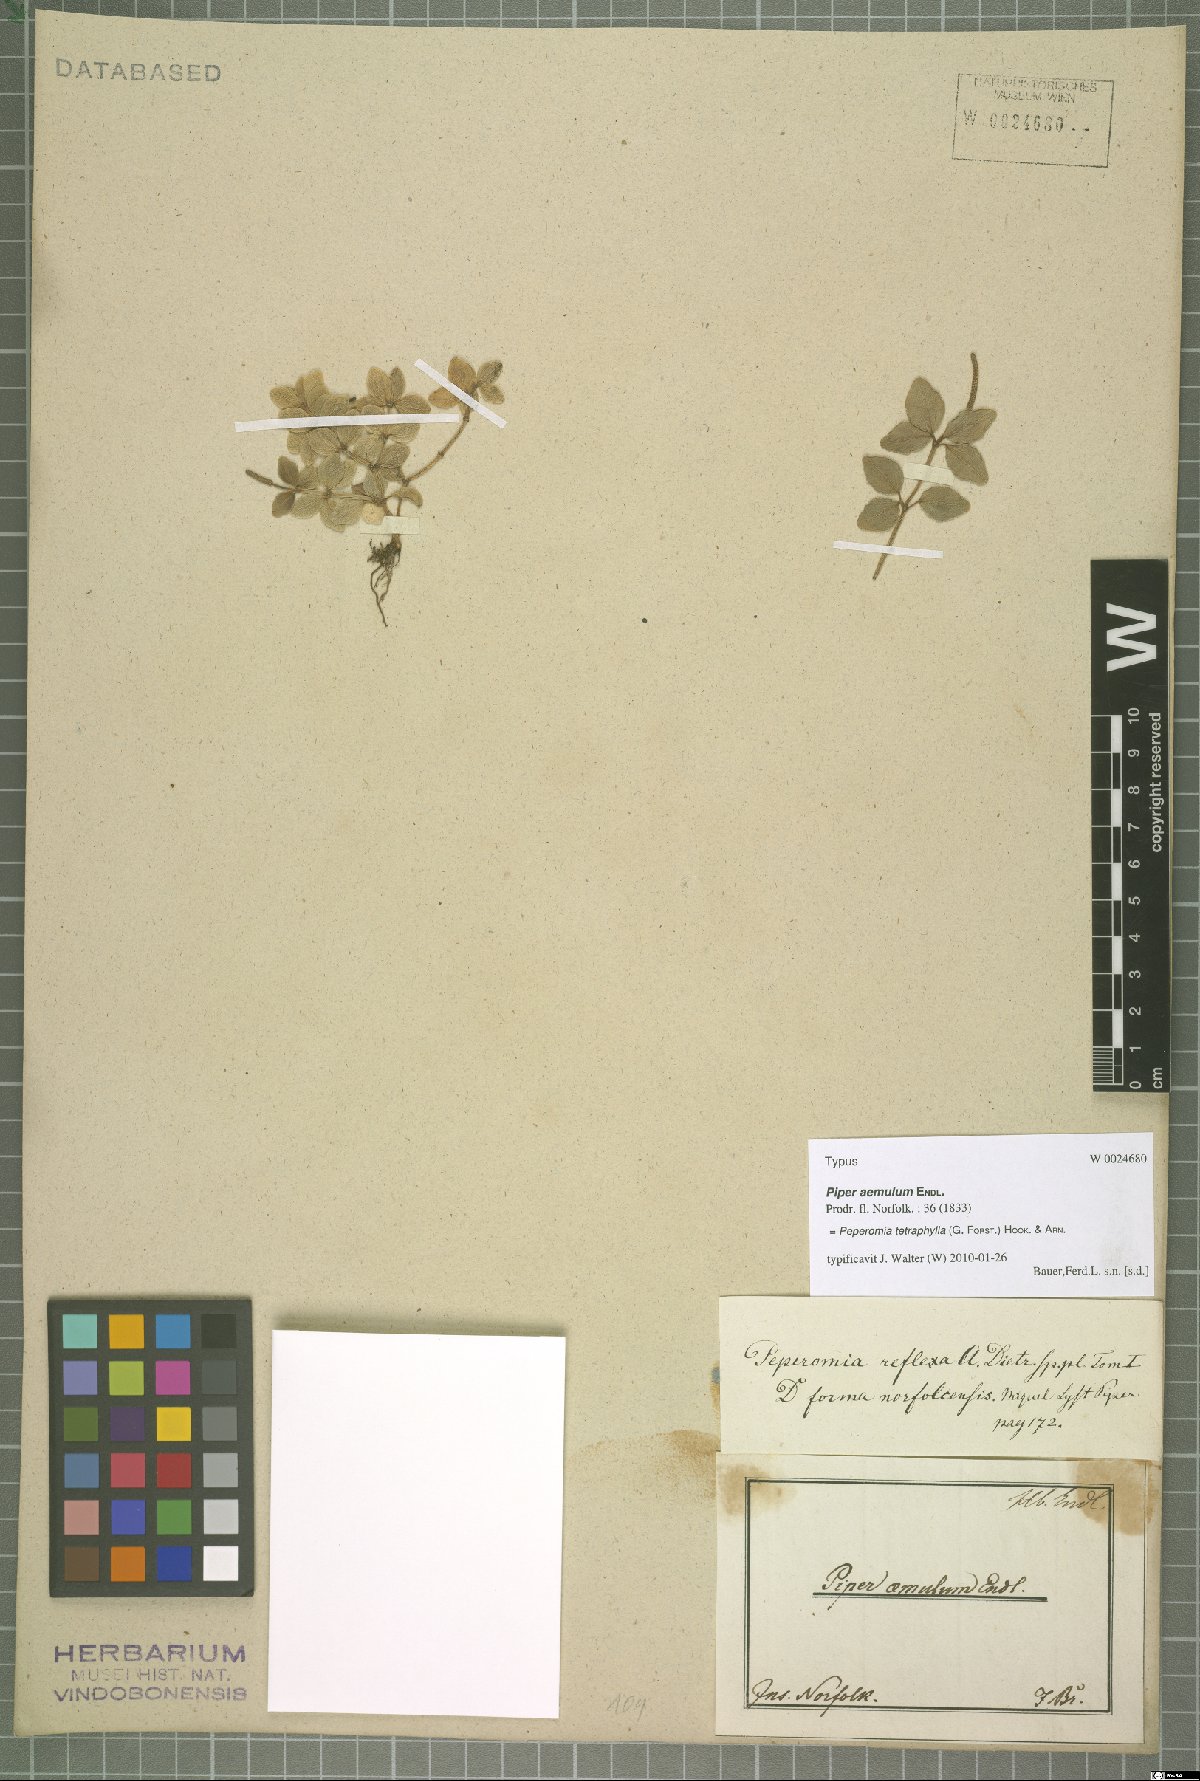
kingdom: Plantae
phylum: Tracheophyta
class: Magnoliopsida
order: Piperales
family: Piperaceae
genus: Peperomia
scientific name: Peperomia tetraphylla
